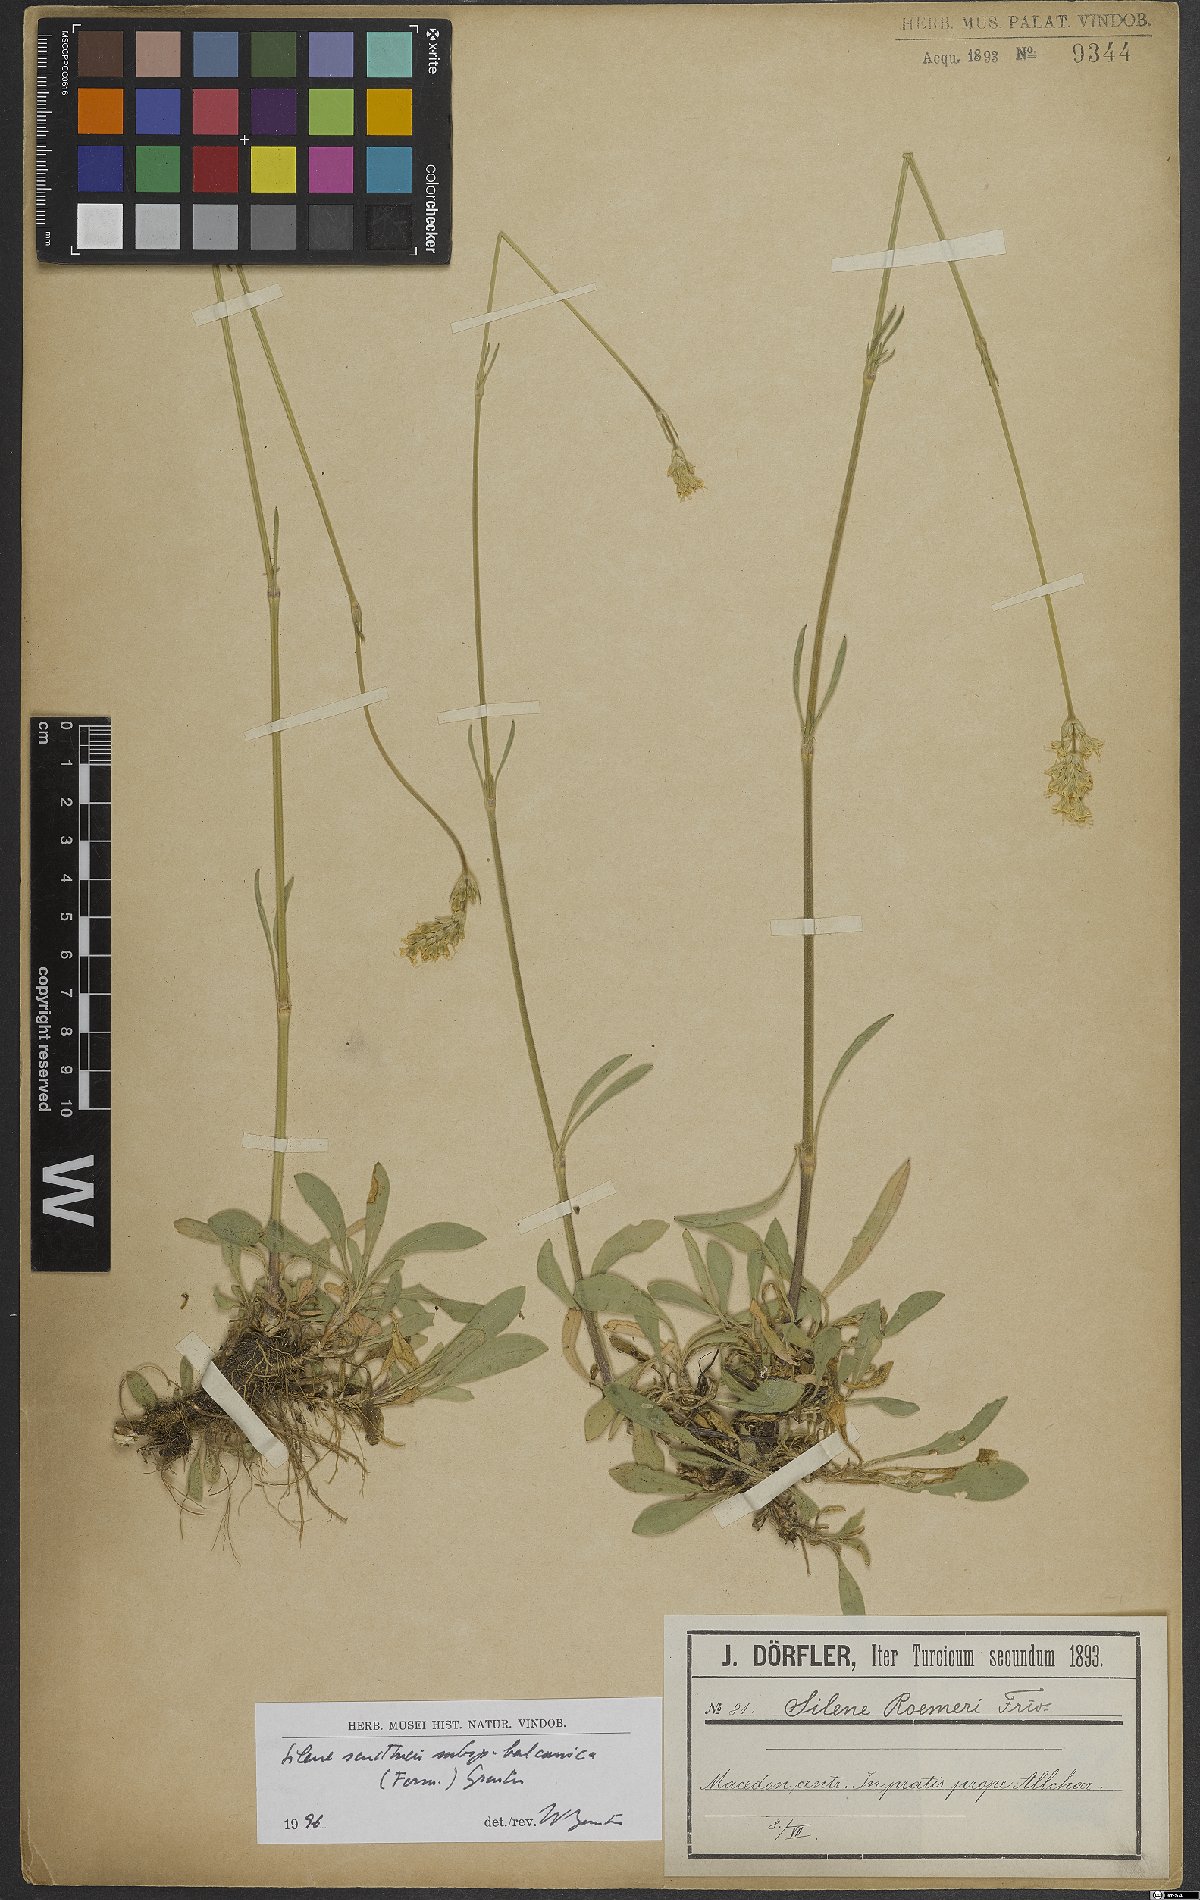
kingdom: Plantae
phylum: Tracheophyta
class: Magnoliopsida
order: Caryophyllales
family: Caryophyllaceae
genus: Silene
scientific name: Silene sendtneri
